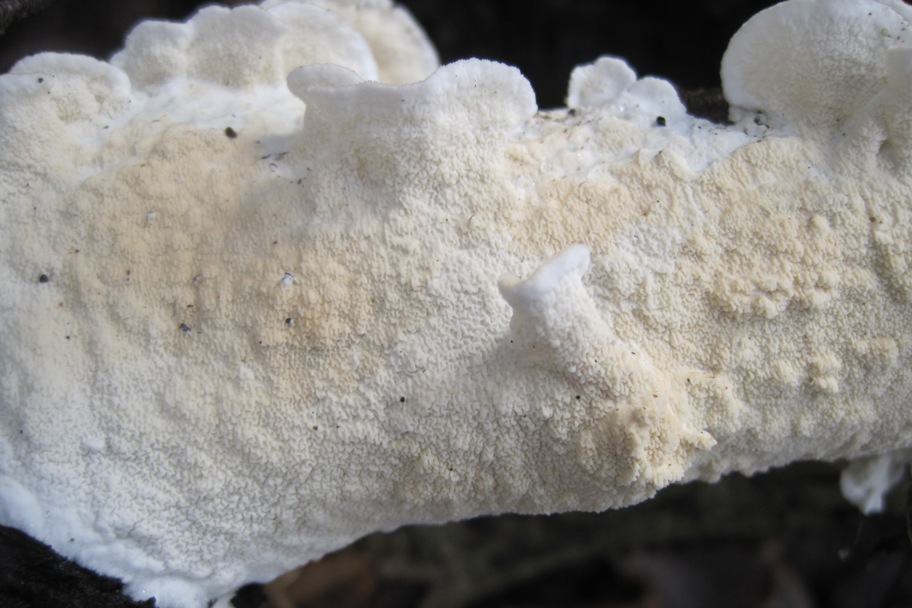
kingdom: Fungi
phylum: Basidiomycota
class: Agaricomycetes
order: Polyporales
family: Irpicaceae
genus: Byssomerulius
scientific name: Byssomerulius corium
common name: læder-åresvamp
